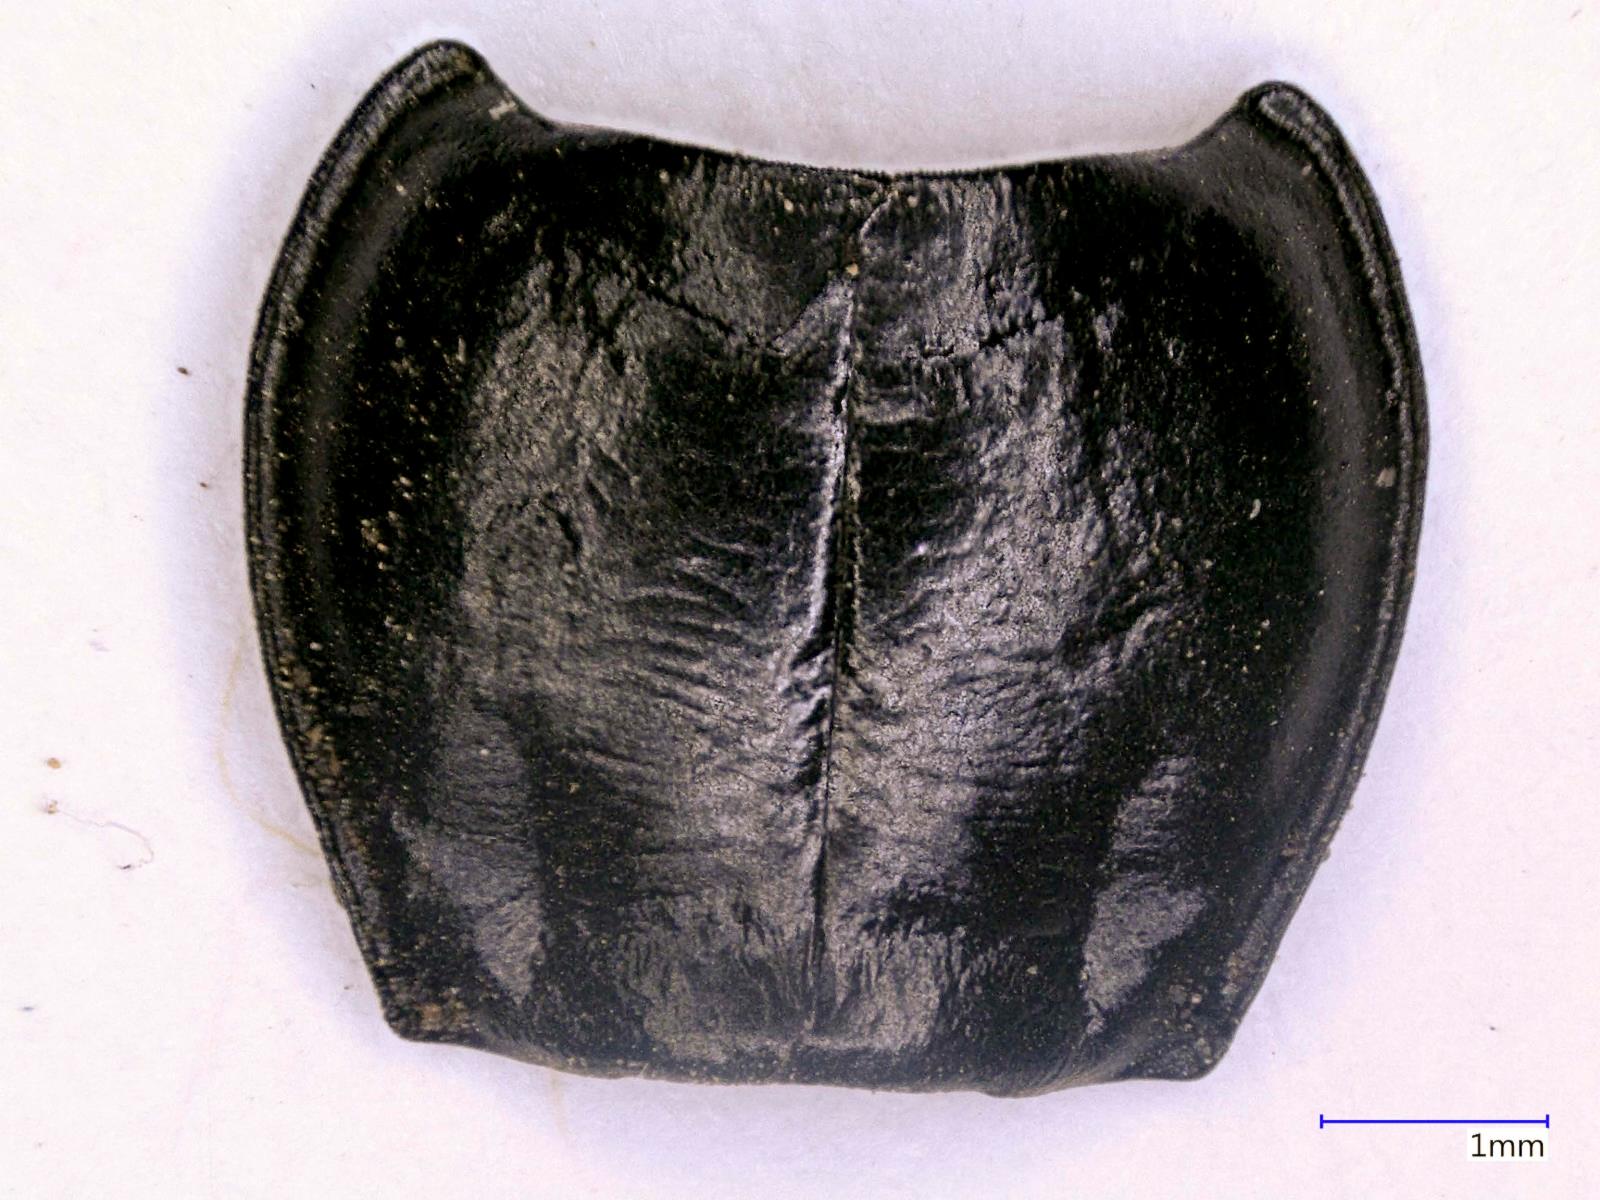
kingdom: Animalia
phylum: Arthropoda
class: Insecta
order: Coleoptera
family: Carabidae
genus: Pterostichus
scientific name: Pterostichus jacobinus
